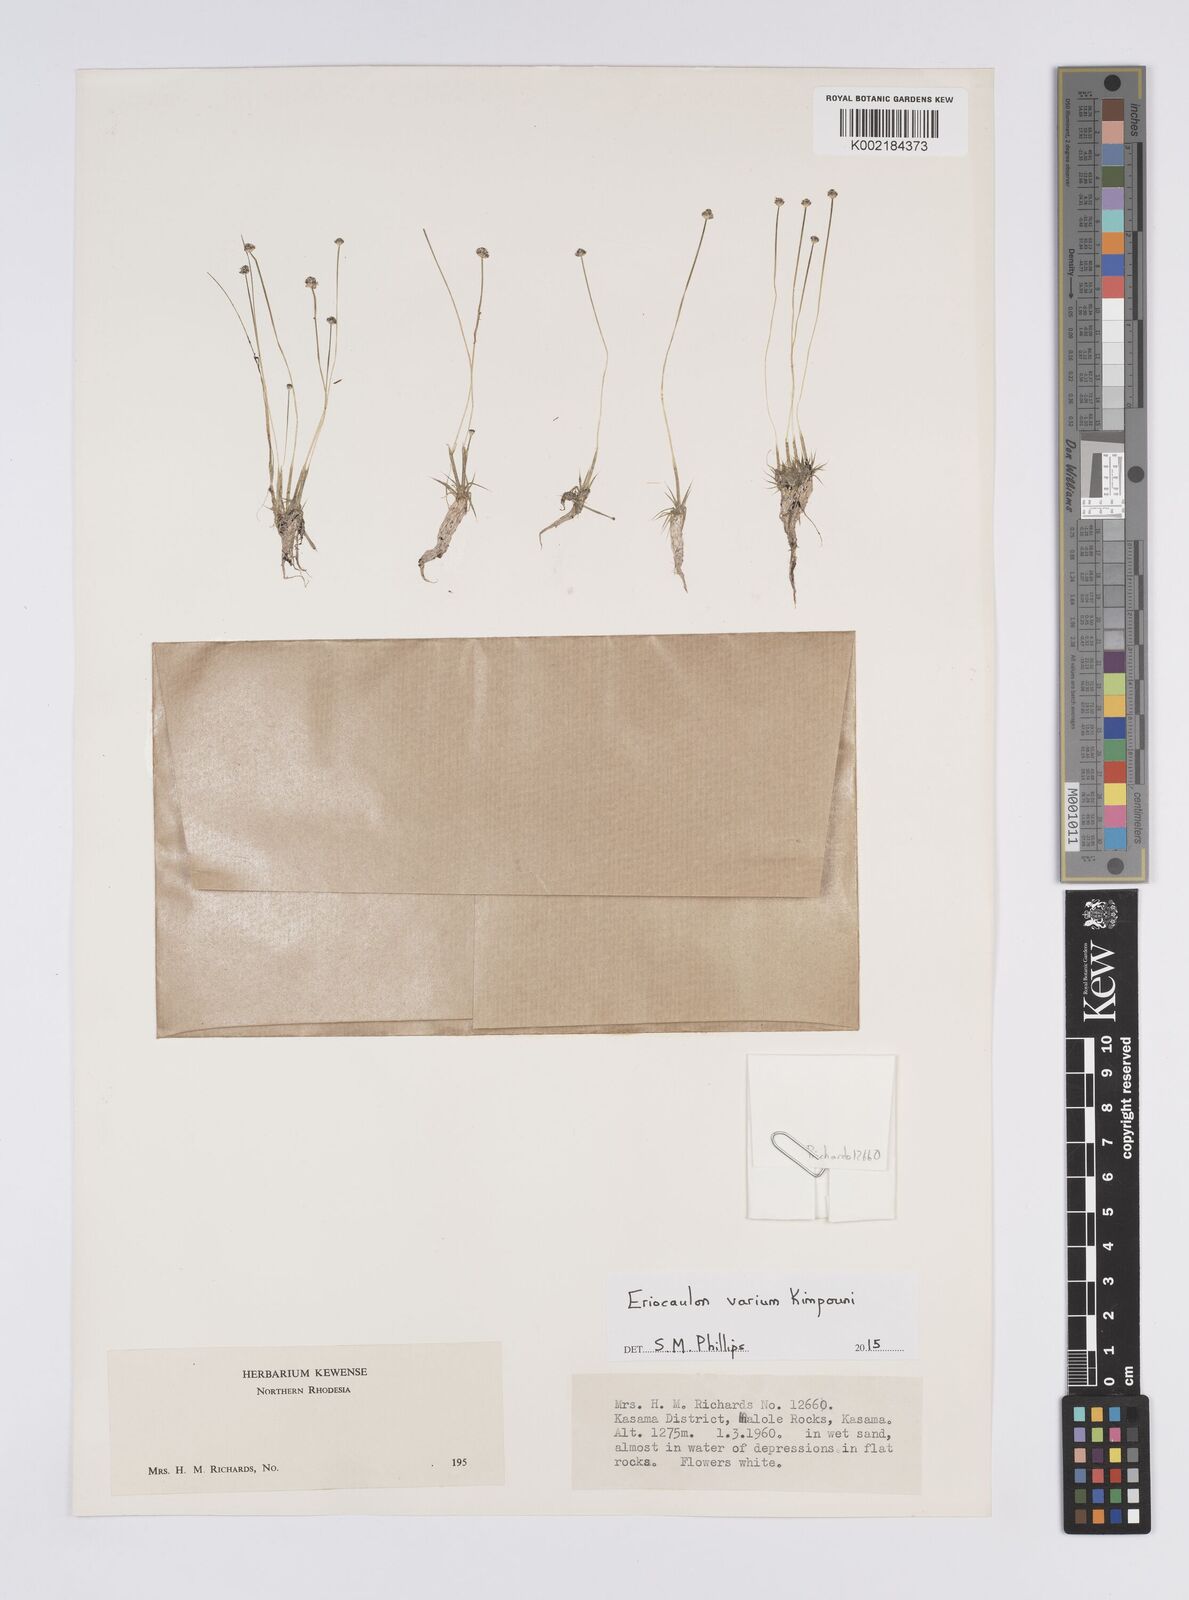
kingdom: Plantae
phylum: Tracheophyta
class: Liliopsida
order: Poales
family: Eriocaulaceae
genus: Eriocaulon
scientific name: Eriocaulon varium
